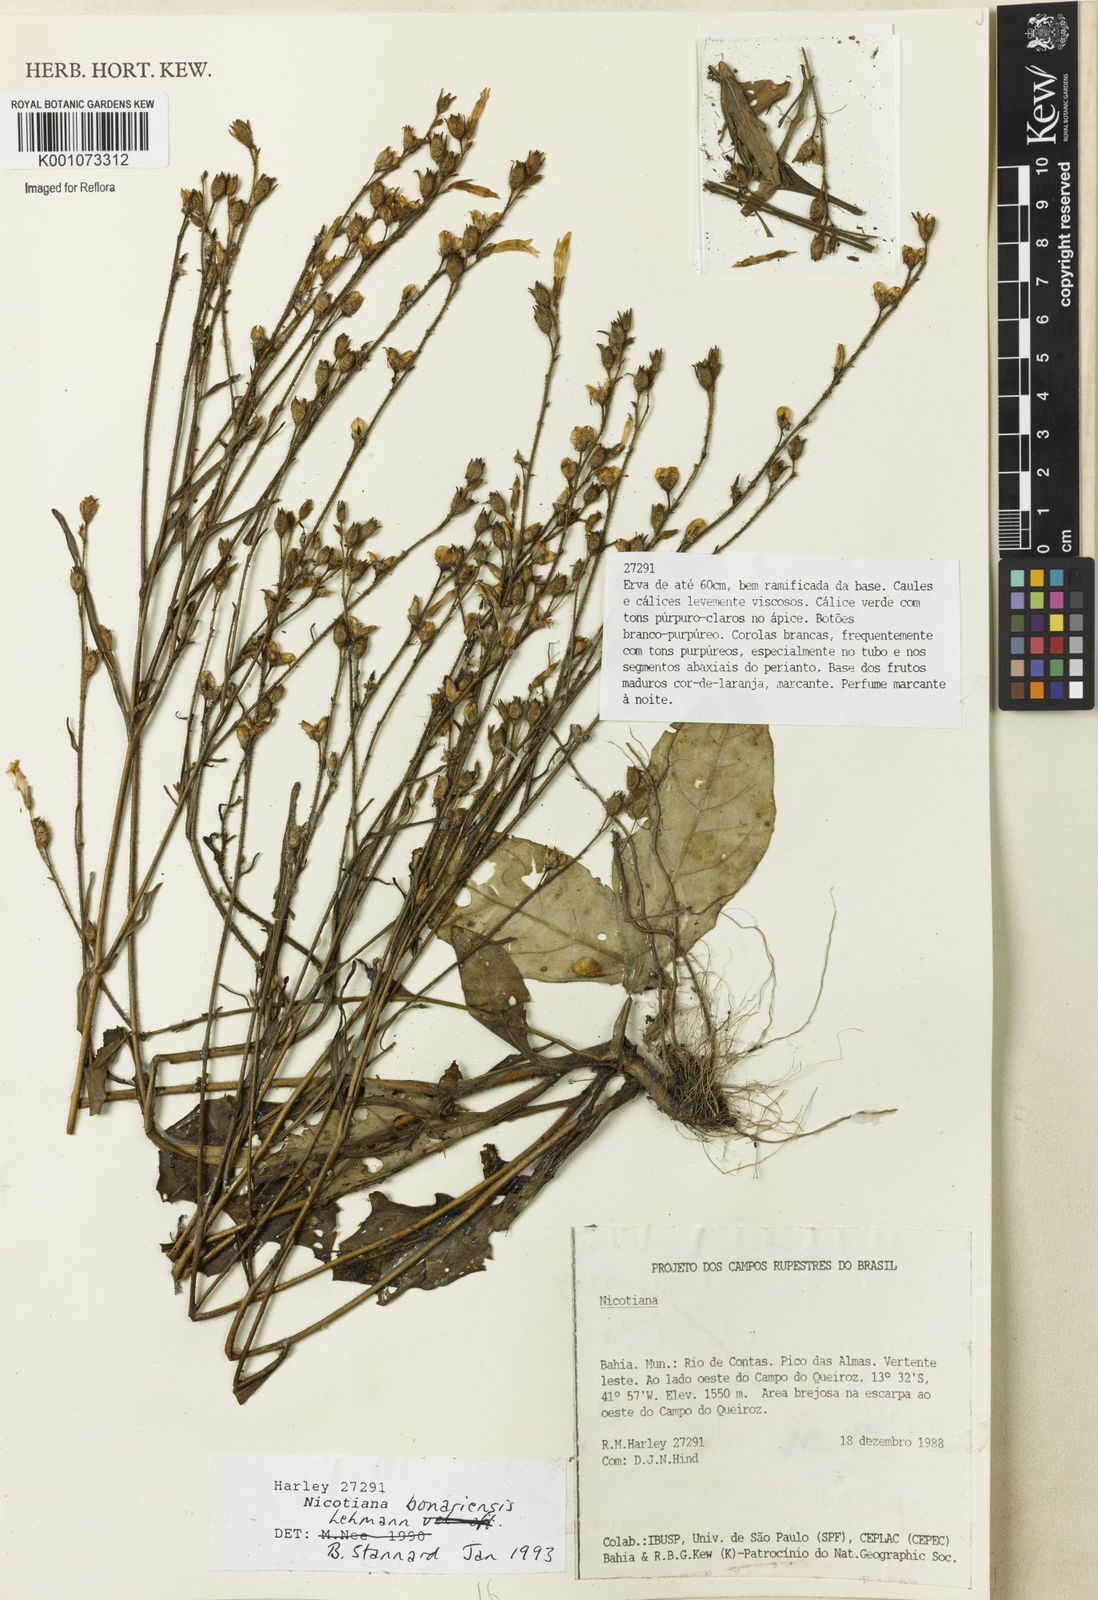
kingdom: Plantae
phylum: Tracheophyta
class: Magnoliopsida
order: Solanales
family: Solanaceae
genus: Nicotiana
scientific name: Nicotiana bonariensis
